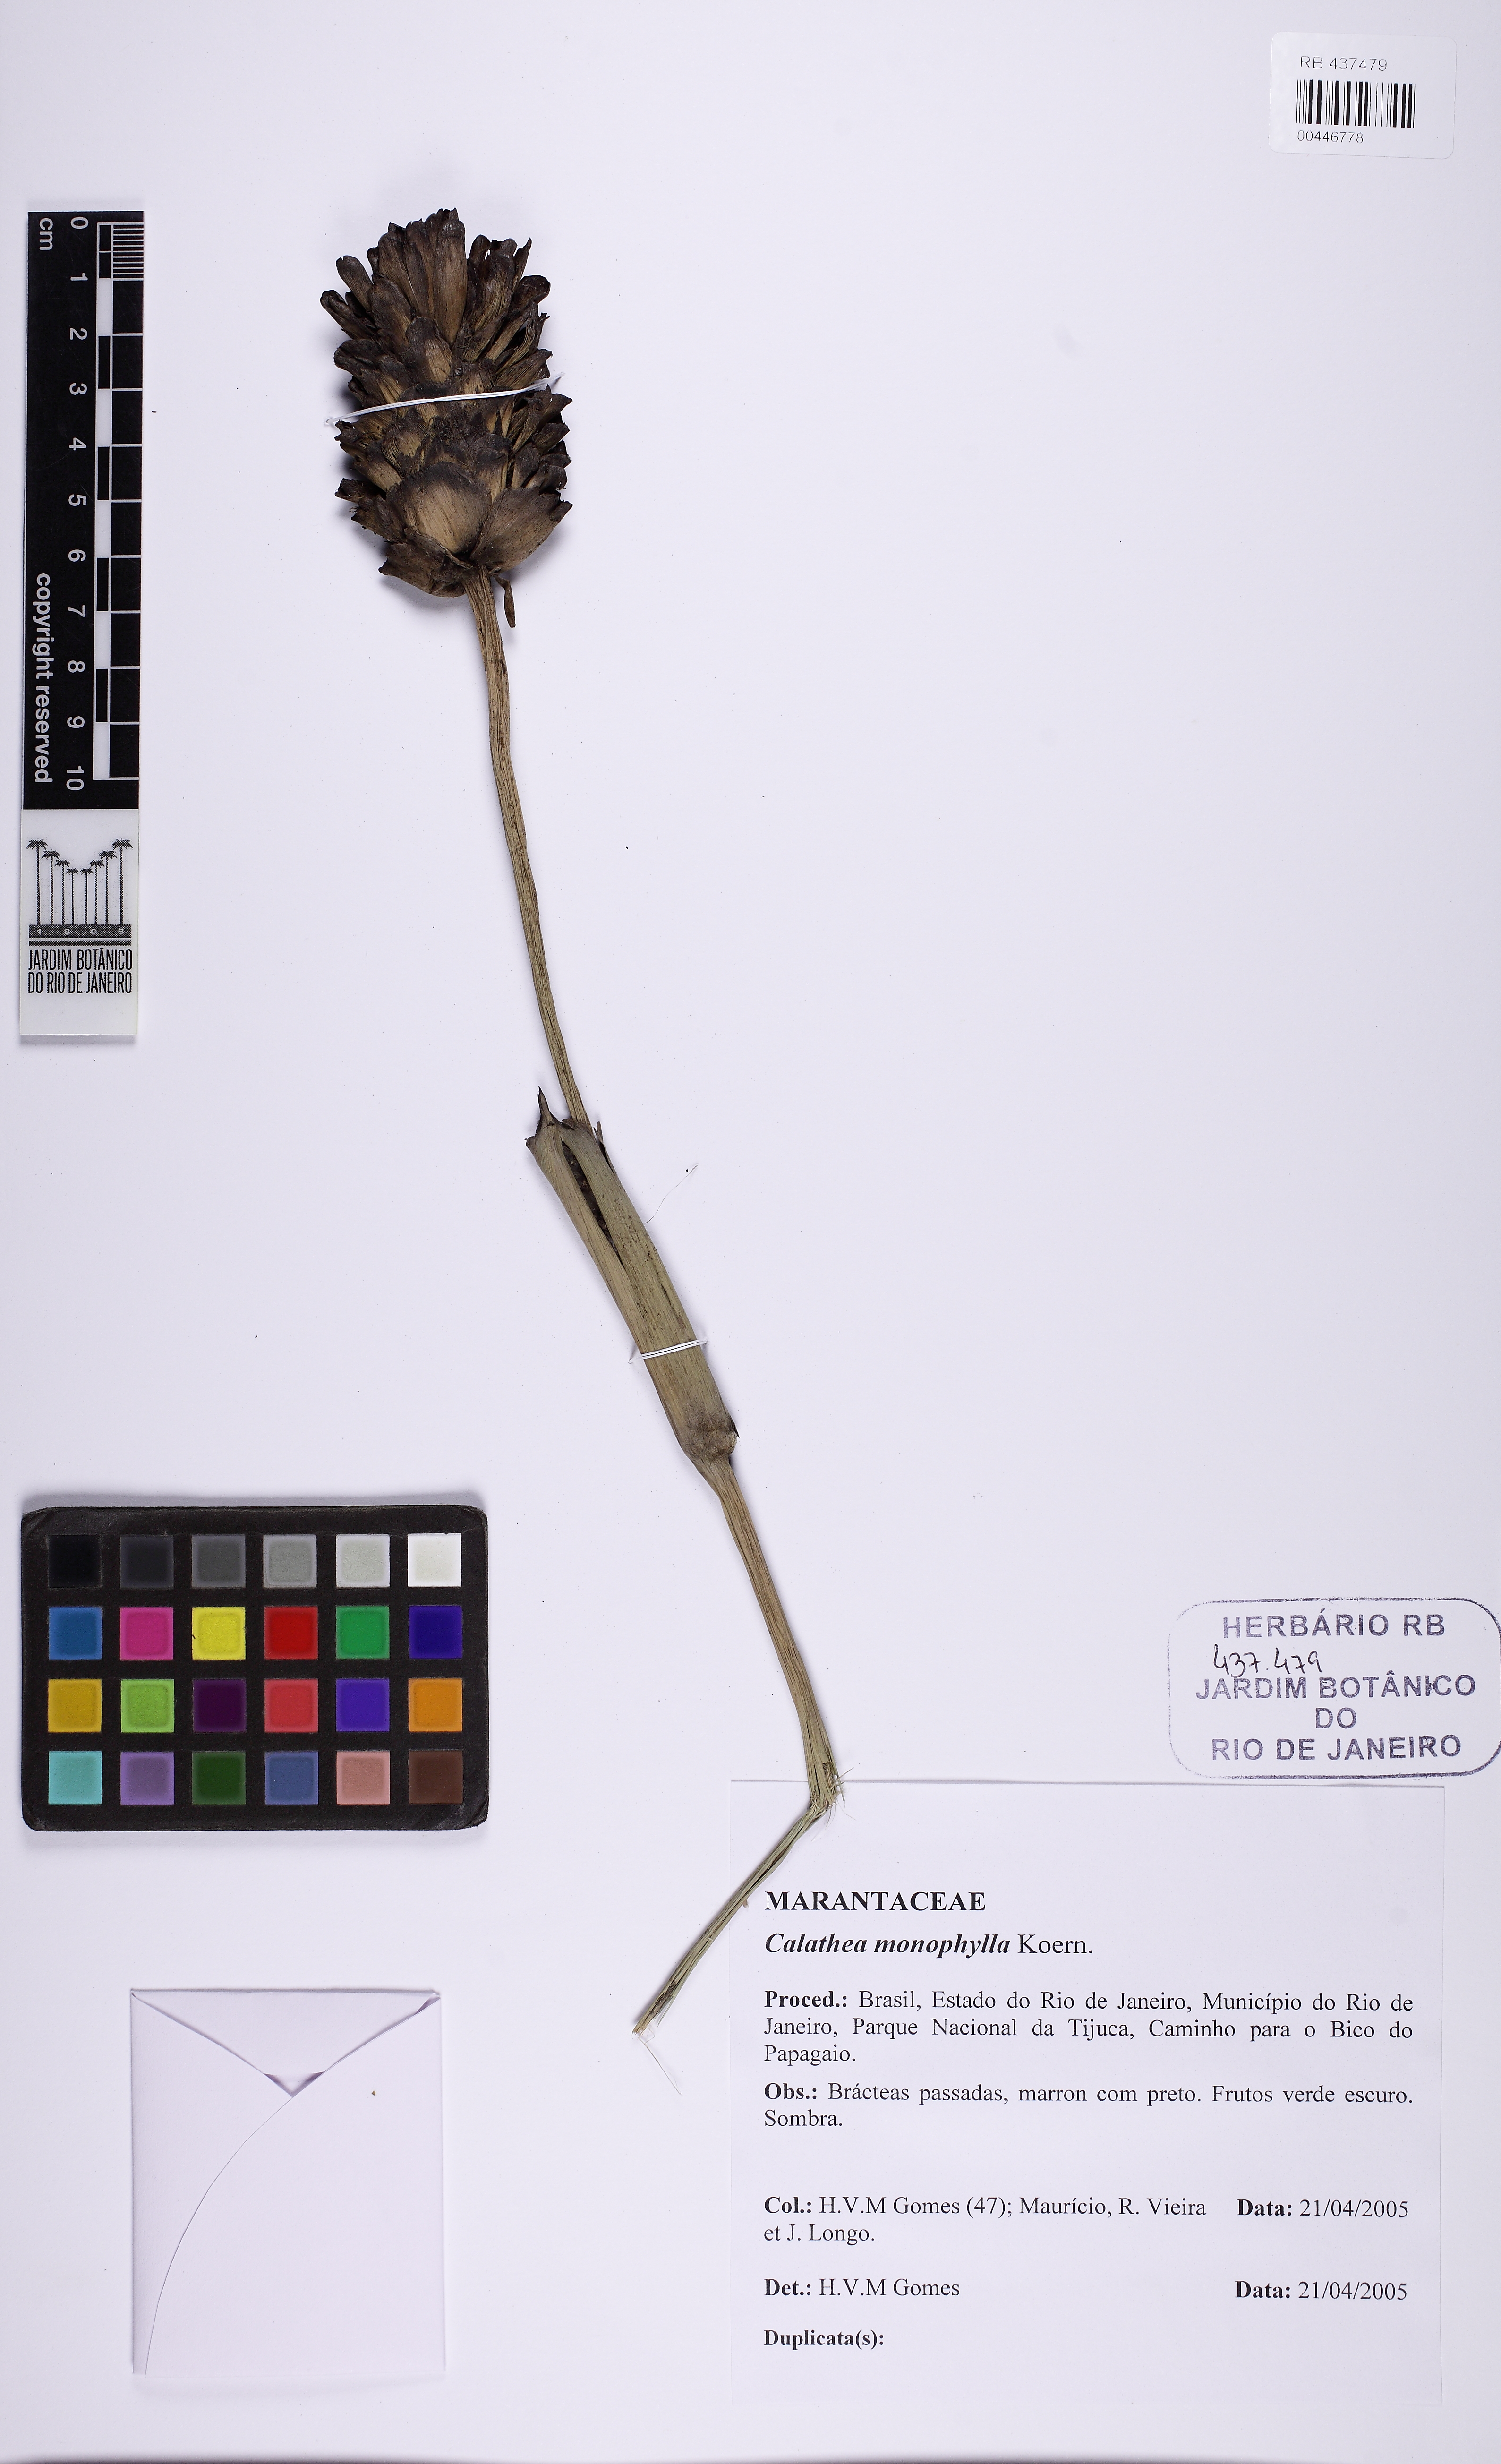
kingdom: Plantae
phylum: Tracheophyta
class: Liliopsida
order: Zingiberales
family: Marantaceae
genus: Goeppertia
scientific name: Goeppertia monophylla
